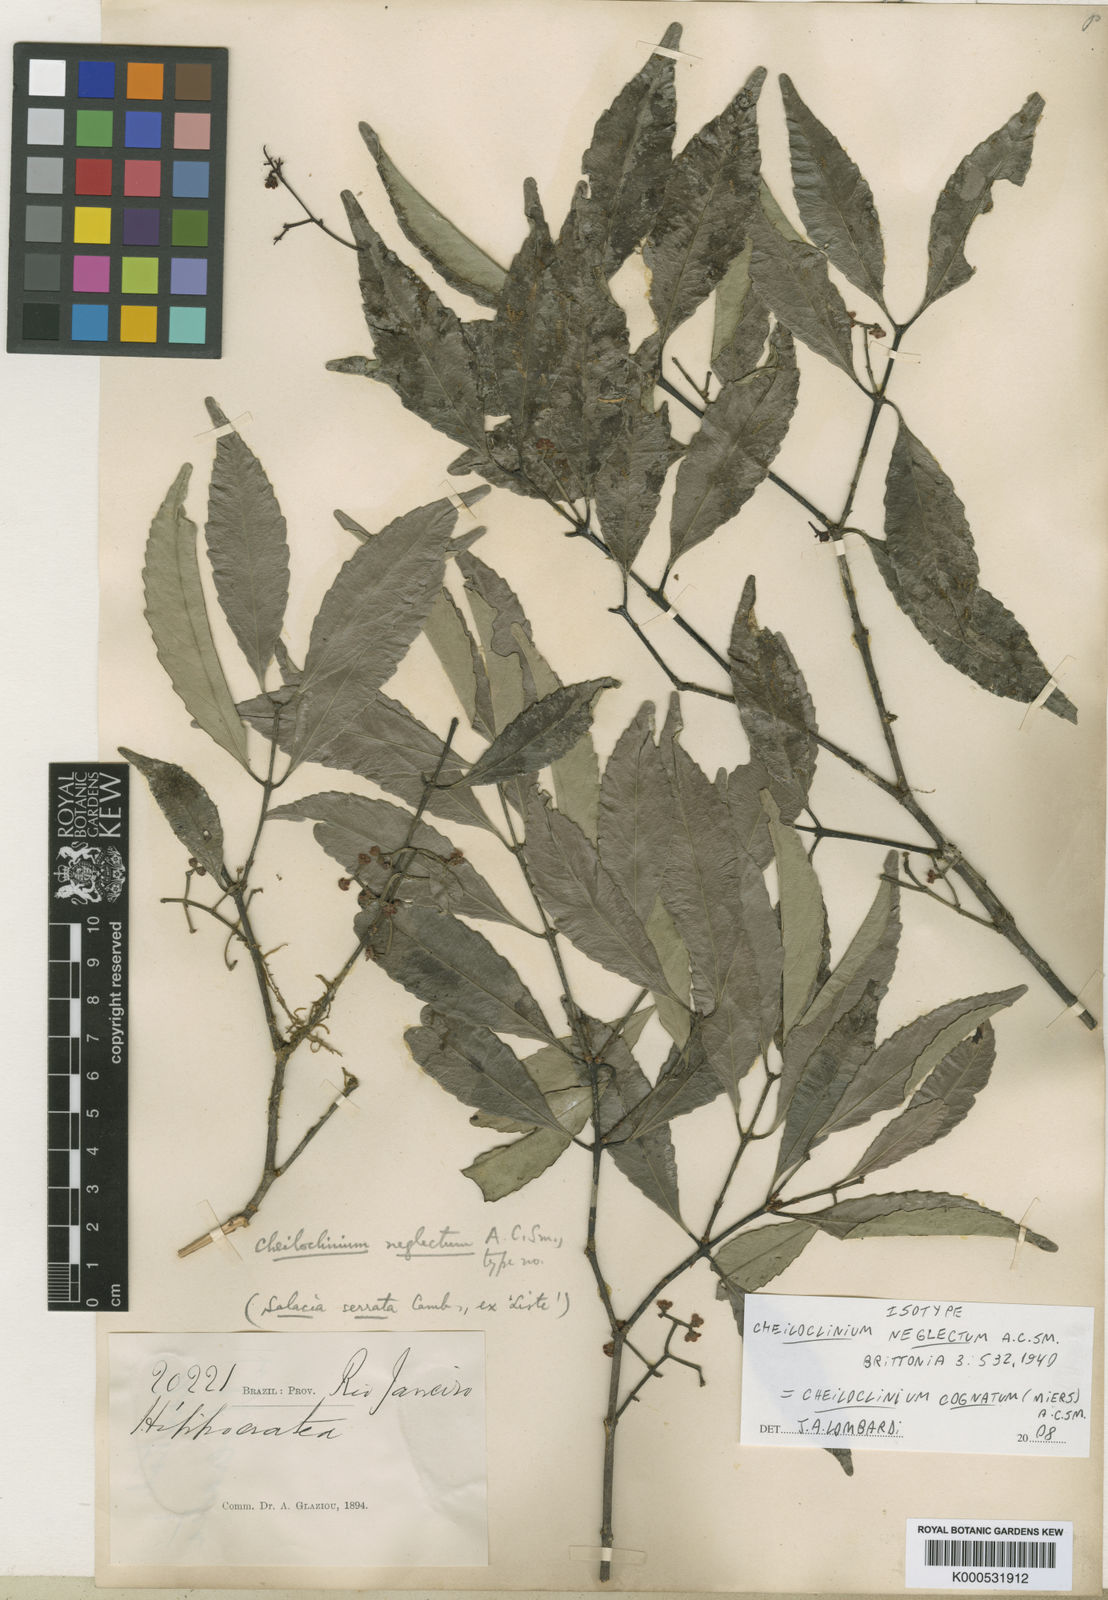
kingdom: Plantae
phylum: Tracheophyta
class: Magnoliopsida
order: Celastrales
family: Celastraceae
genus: Cheiloclinium
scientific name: Cheiloclinium cognatum
